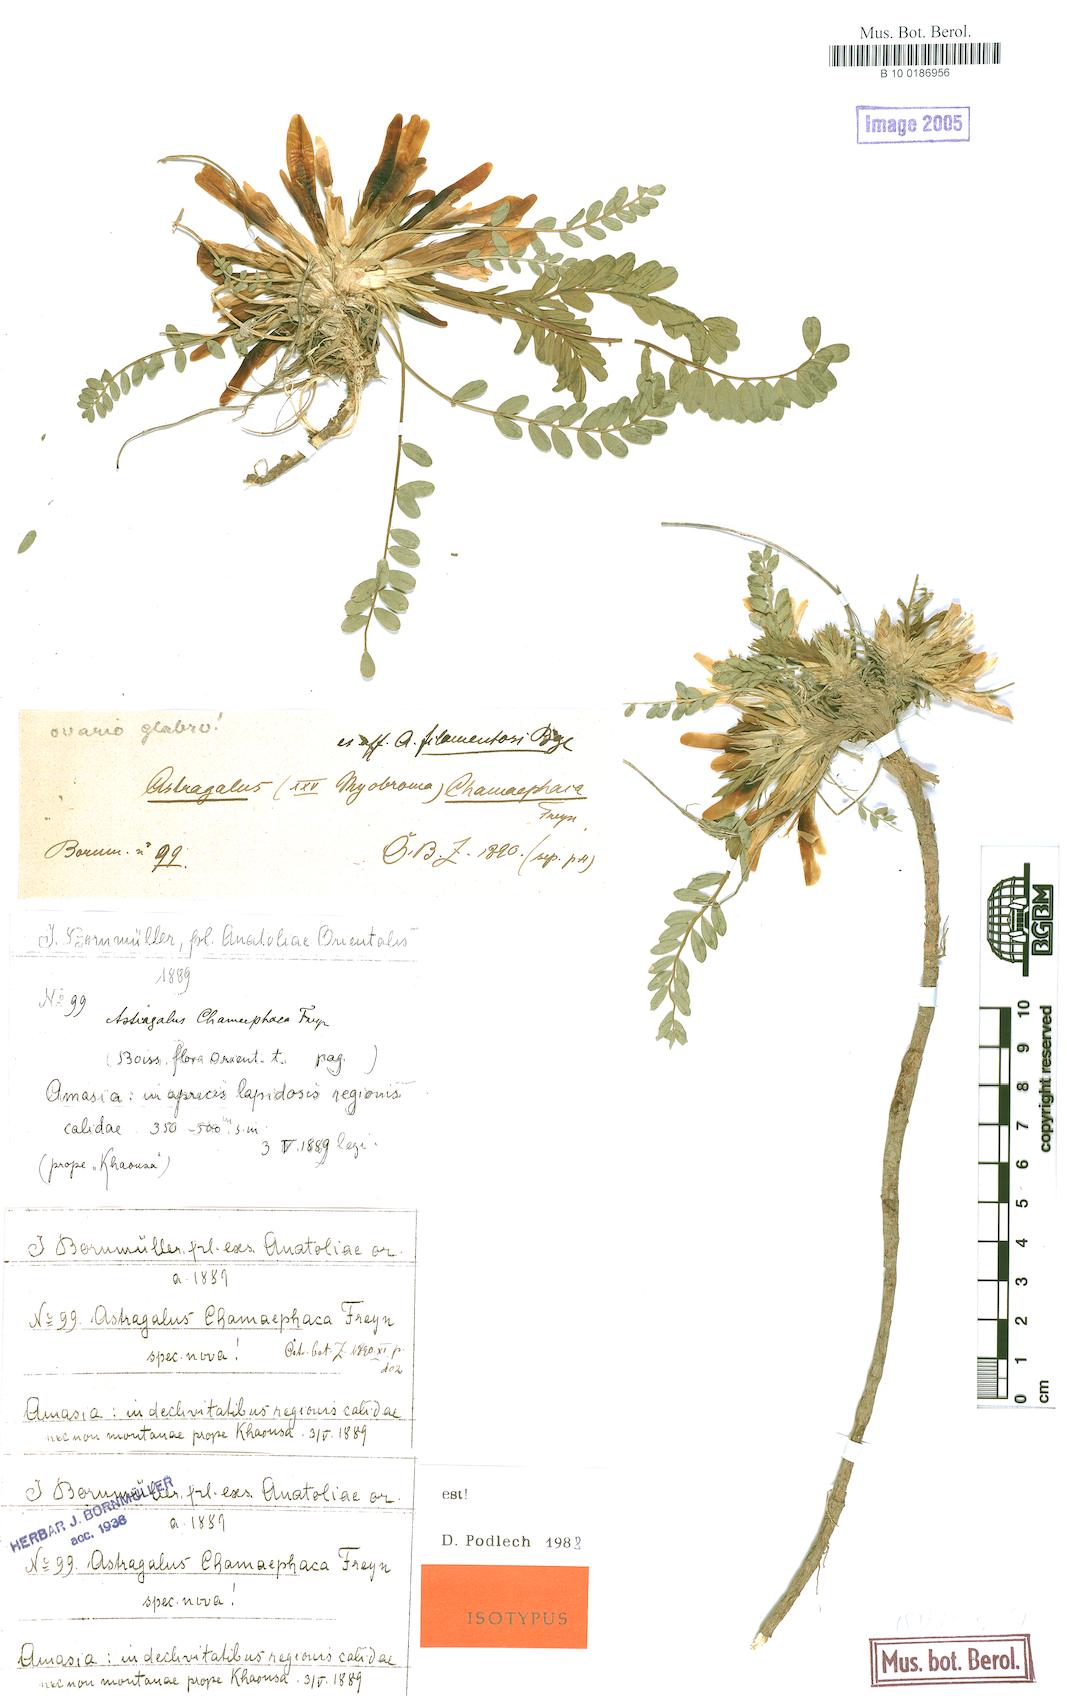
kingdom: Plantae
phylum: Tracheophyta
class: Magnoliopsida
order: Fabales
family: Fabaceae
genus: Astragalus
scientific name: Astragalus chamaephaca
